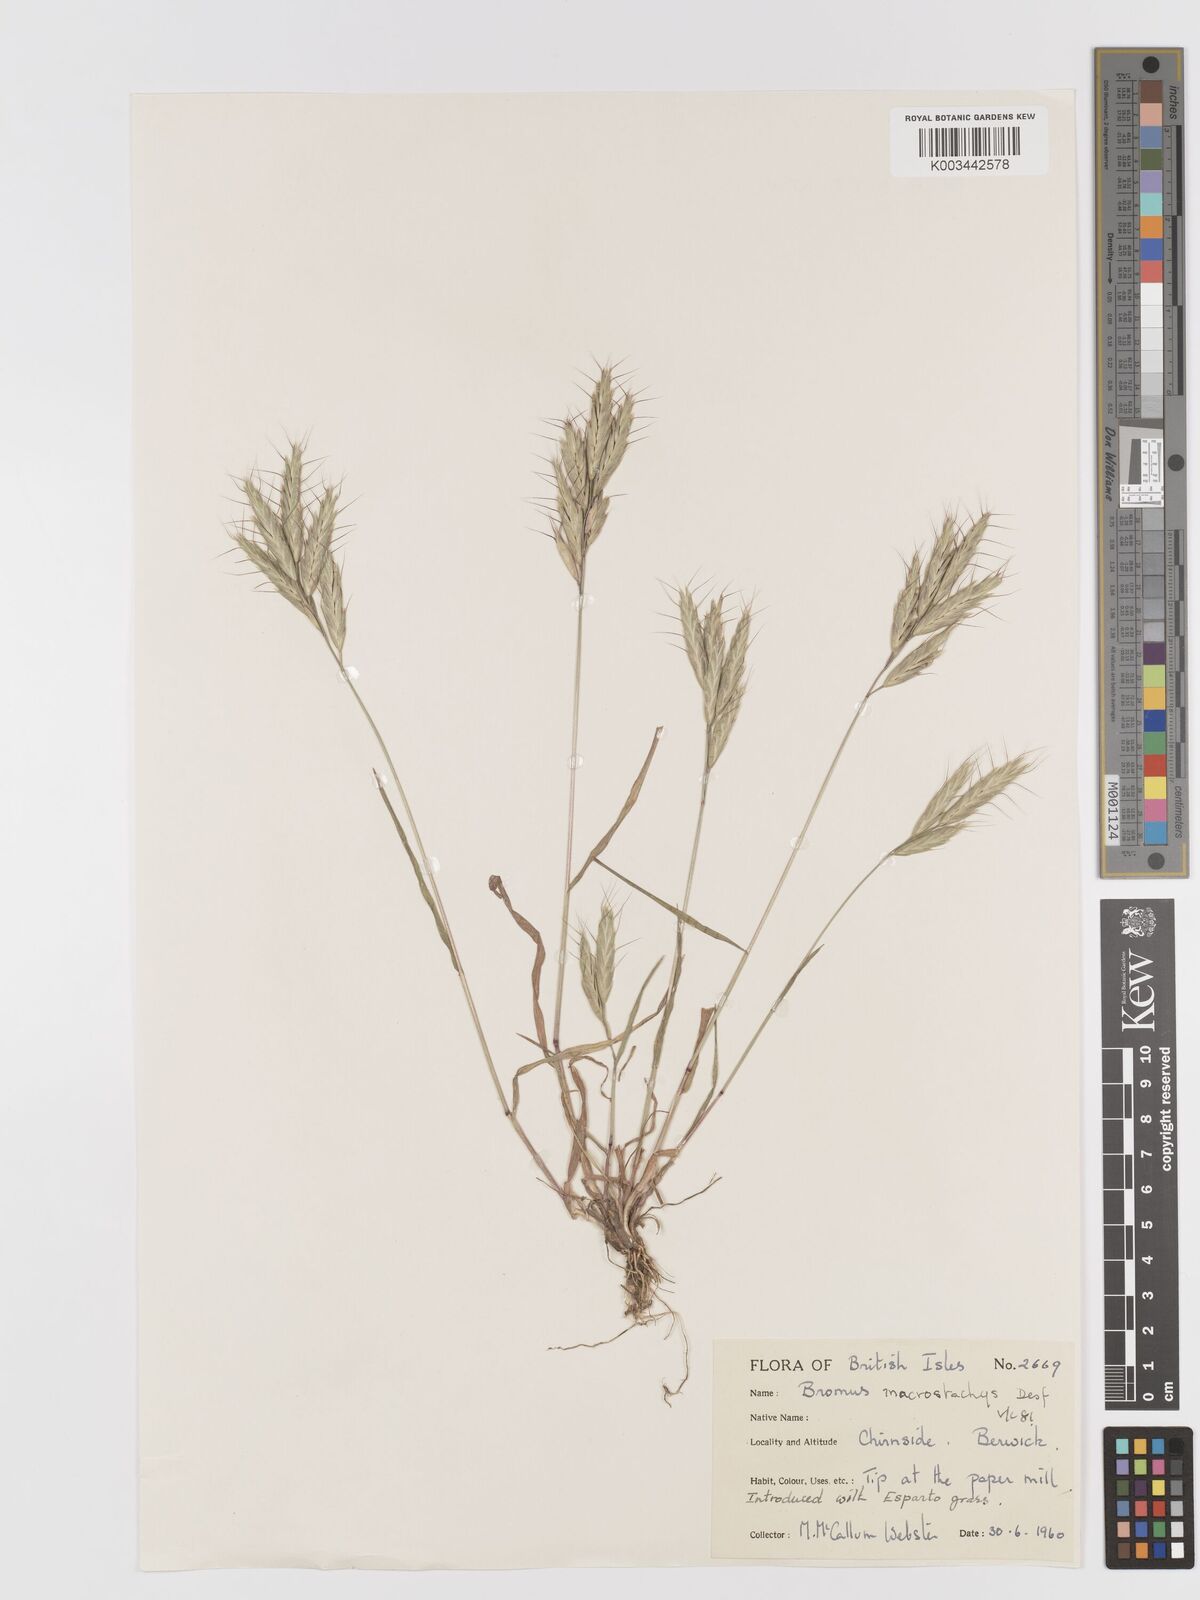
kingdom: Plantae
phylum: Tracheophyta
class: Liliopsida
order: Poales
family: Poaceae
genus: Bromus
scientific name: Bromus lanceolatus
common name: Mediterranean brome
